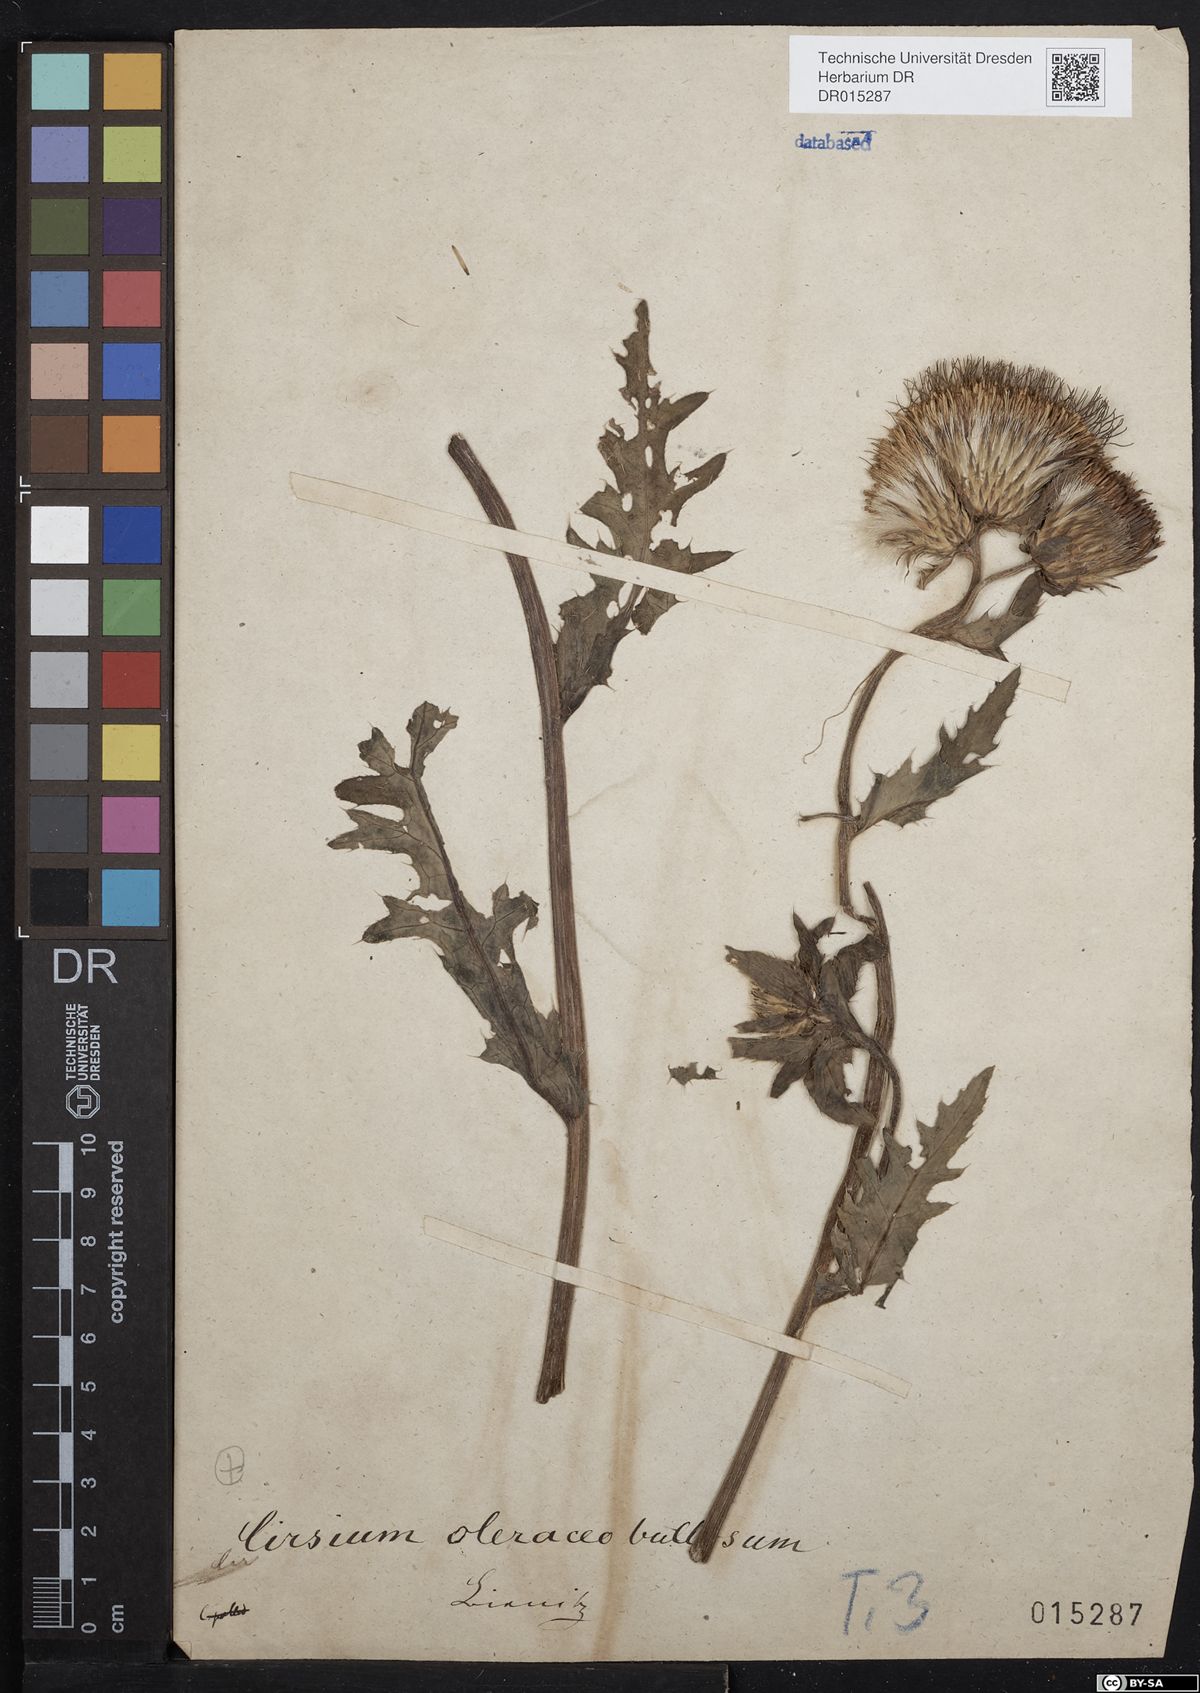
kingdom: Plantae
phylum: Tracheophyta
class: Magnoliopsida
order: Asterales
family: Asteraceae
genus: Cirsium
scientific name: Cirsium lachenalii
